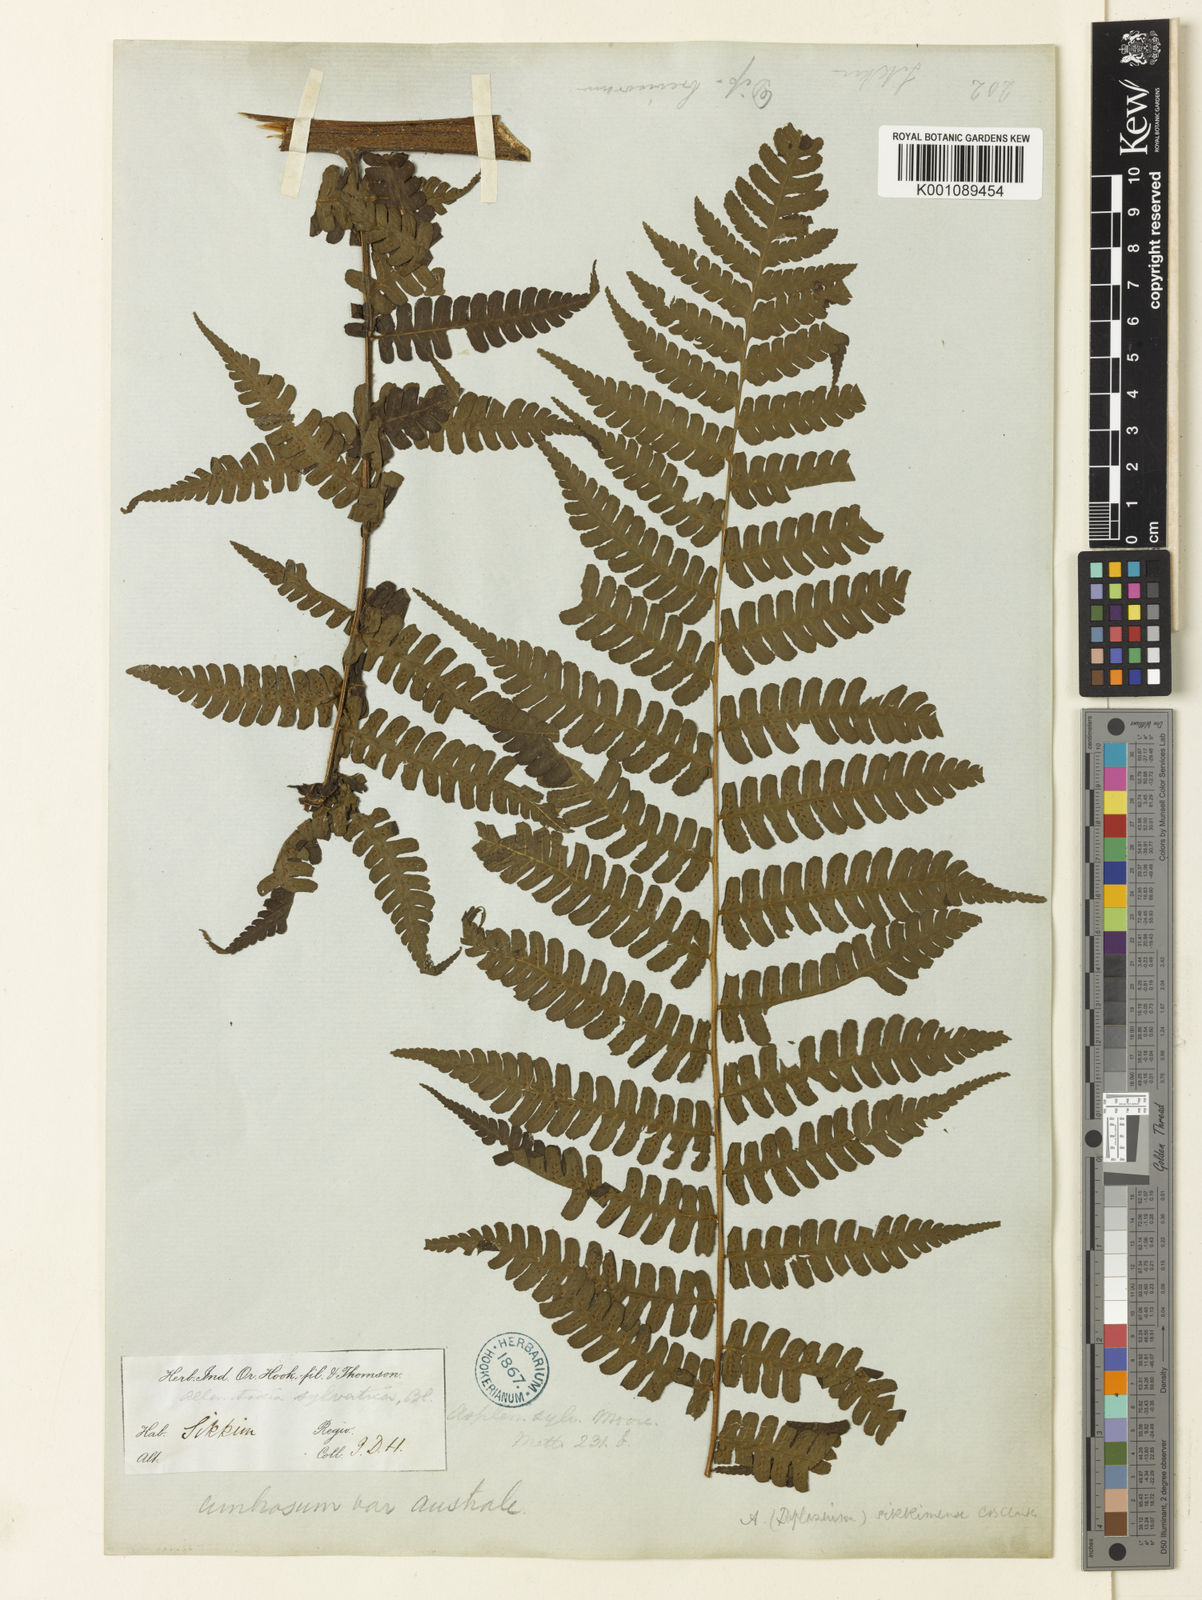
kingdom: Plantae
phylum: Tracheophyta
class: Polypodiopsida
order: Polypodiales
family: Athyriaceae
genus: Diplazium
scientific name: Diplazium sikkimense
